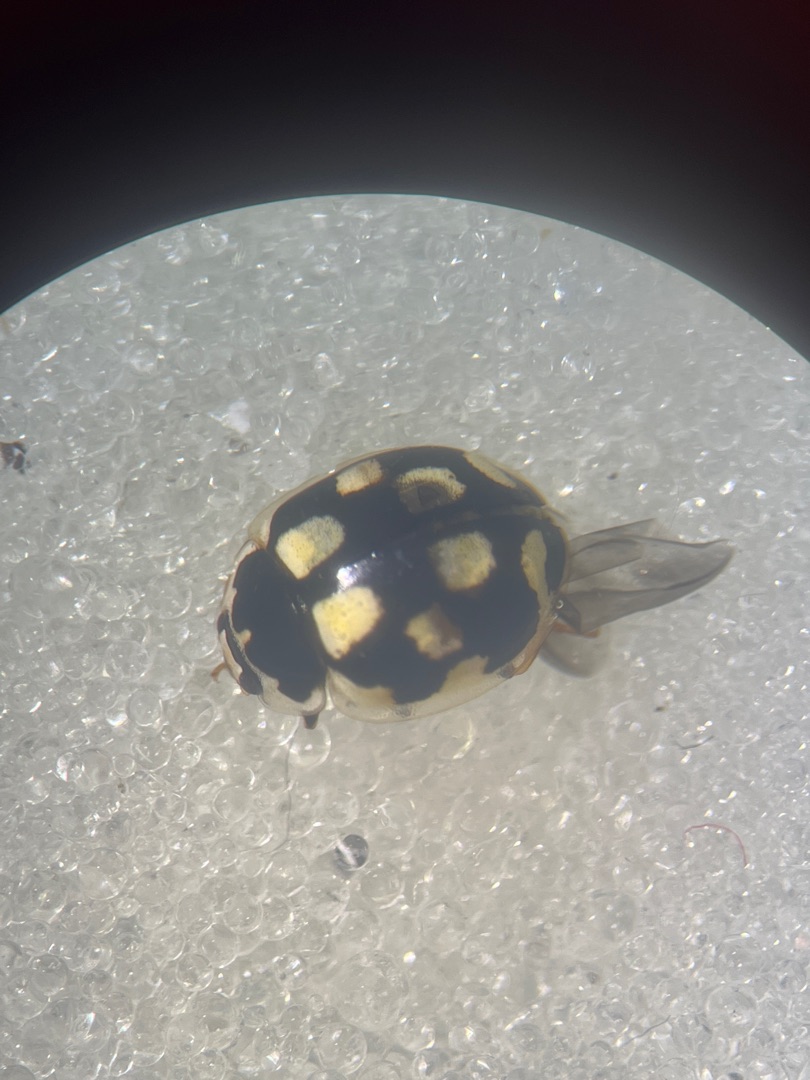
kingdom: Animalia
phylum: Arthropoda
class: Insecta
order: Coleoptera
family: Coccinellidae
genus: Propylaea
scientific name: Propylaea quatuordecimpunctata
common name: Skakbræt
